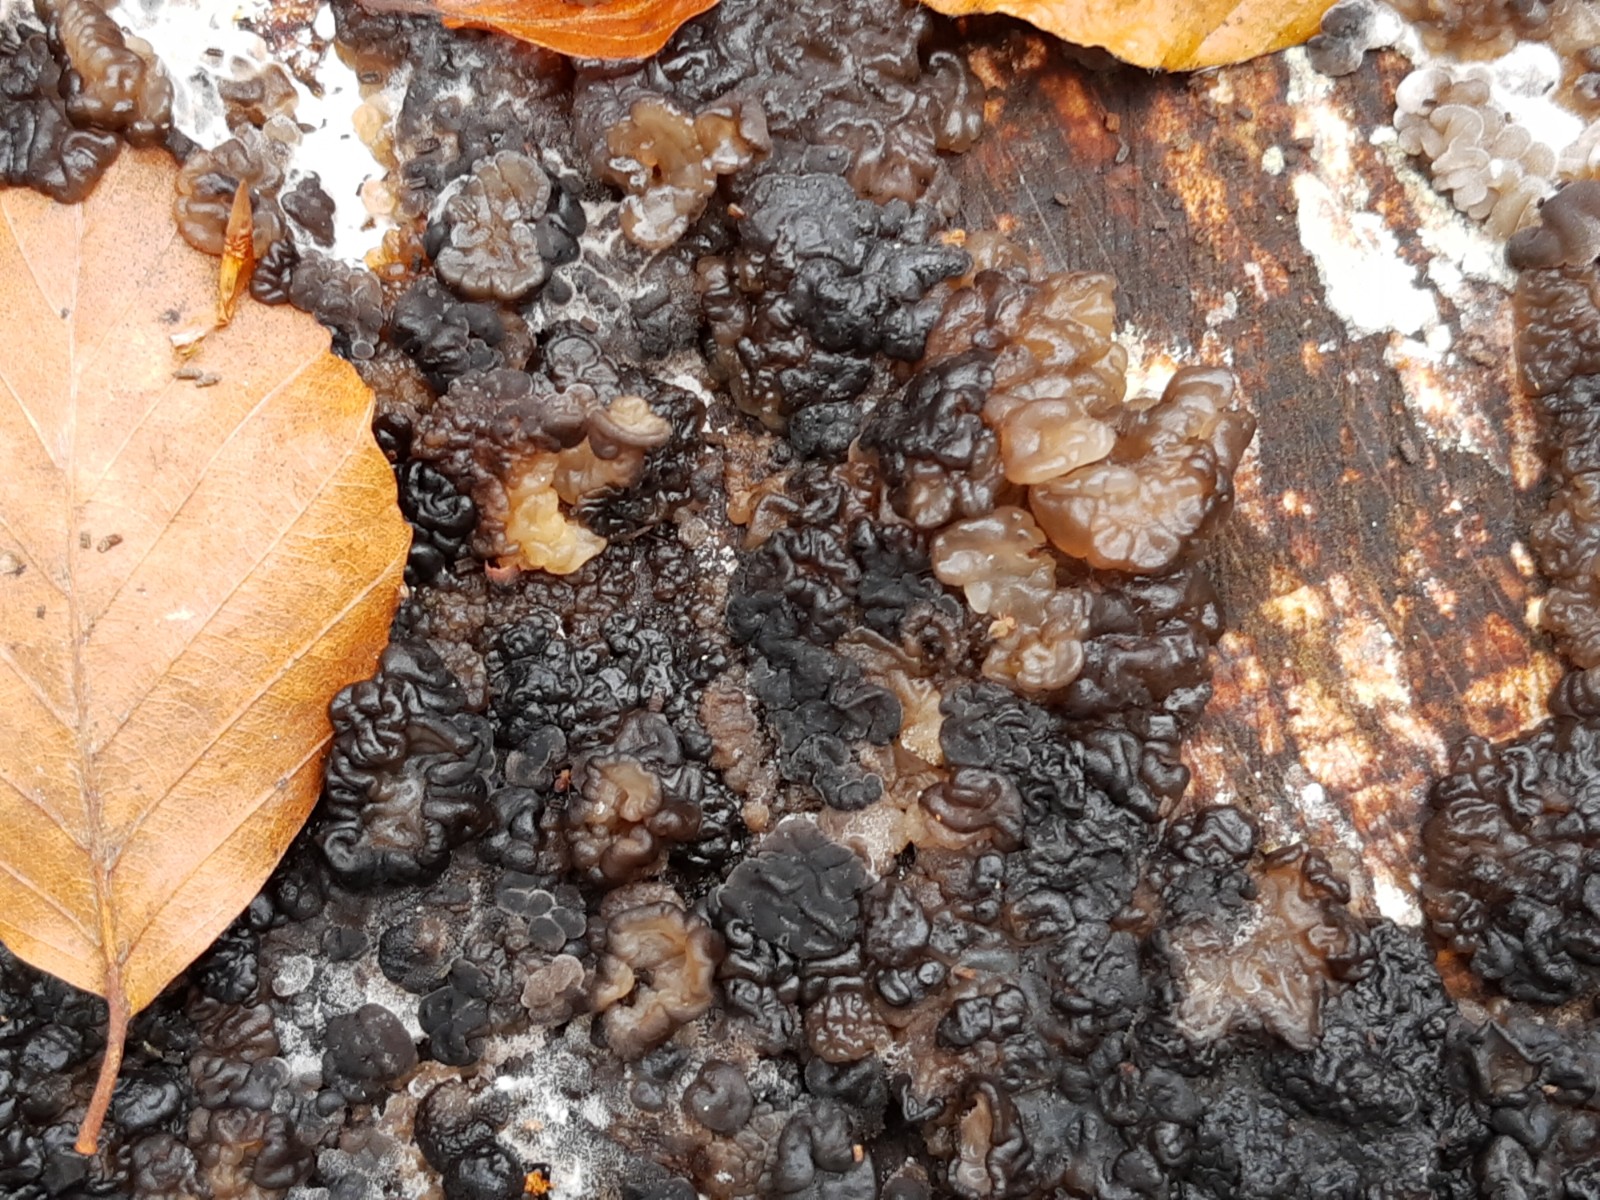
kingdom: Fungi
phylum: Basidiomycota
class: Agaricomycetes
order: Auriculariales
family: Auriculariaceae
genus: Exidia
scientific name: Exidia nigricans
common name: almindelig bævretop
